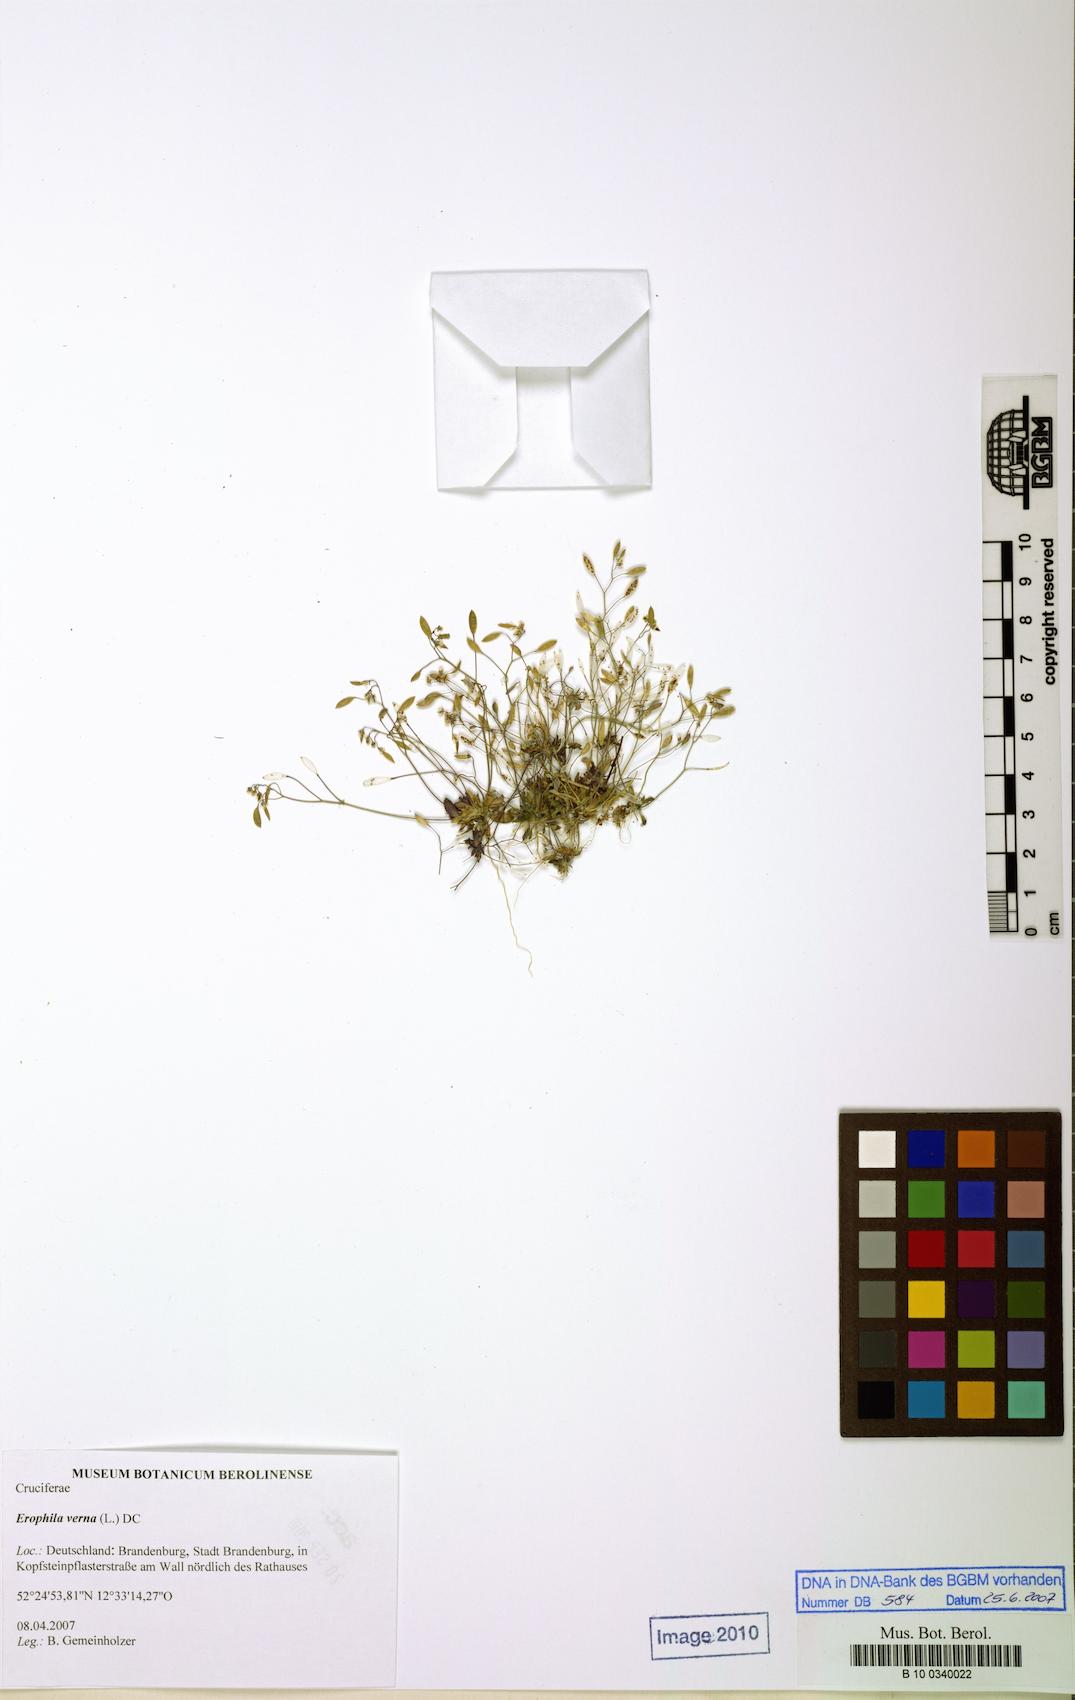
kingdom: Plantae
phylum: Tracheophyta
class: Magnoliopsida
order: Brassicales
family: Brassicaceae
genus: Draba
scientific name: Draba verna
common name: Spring draba
